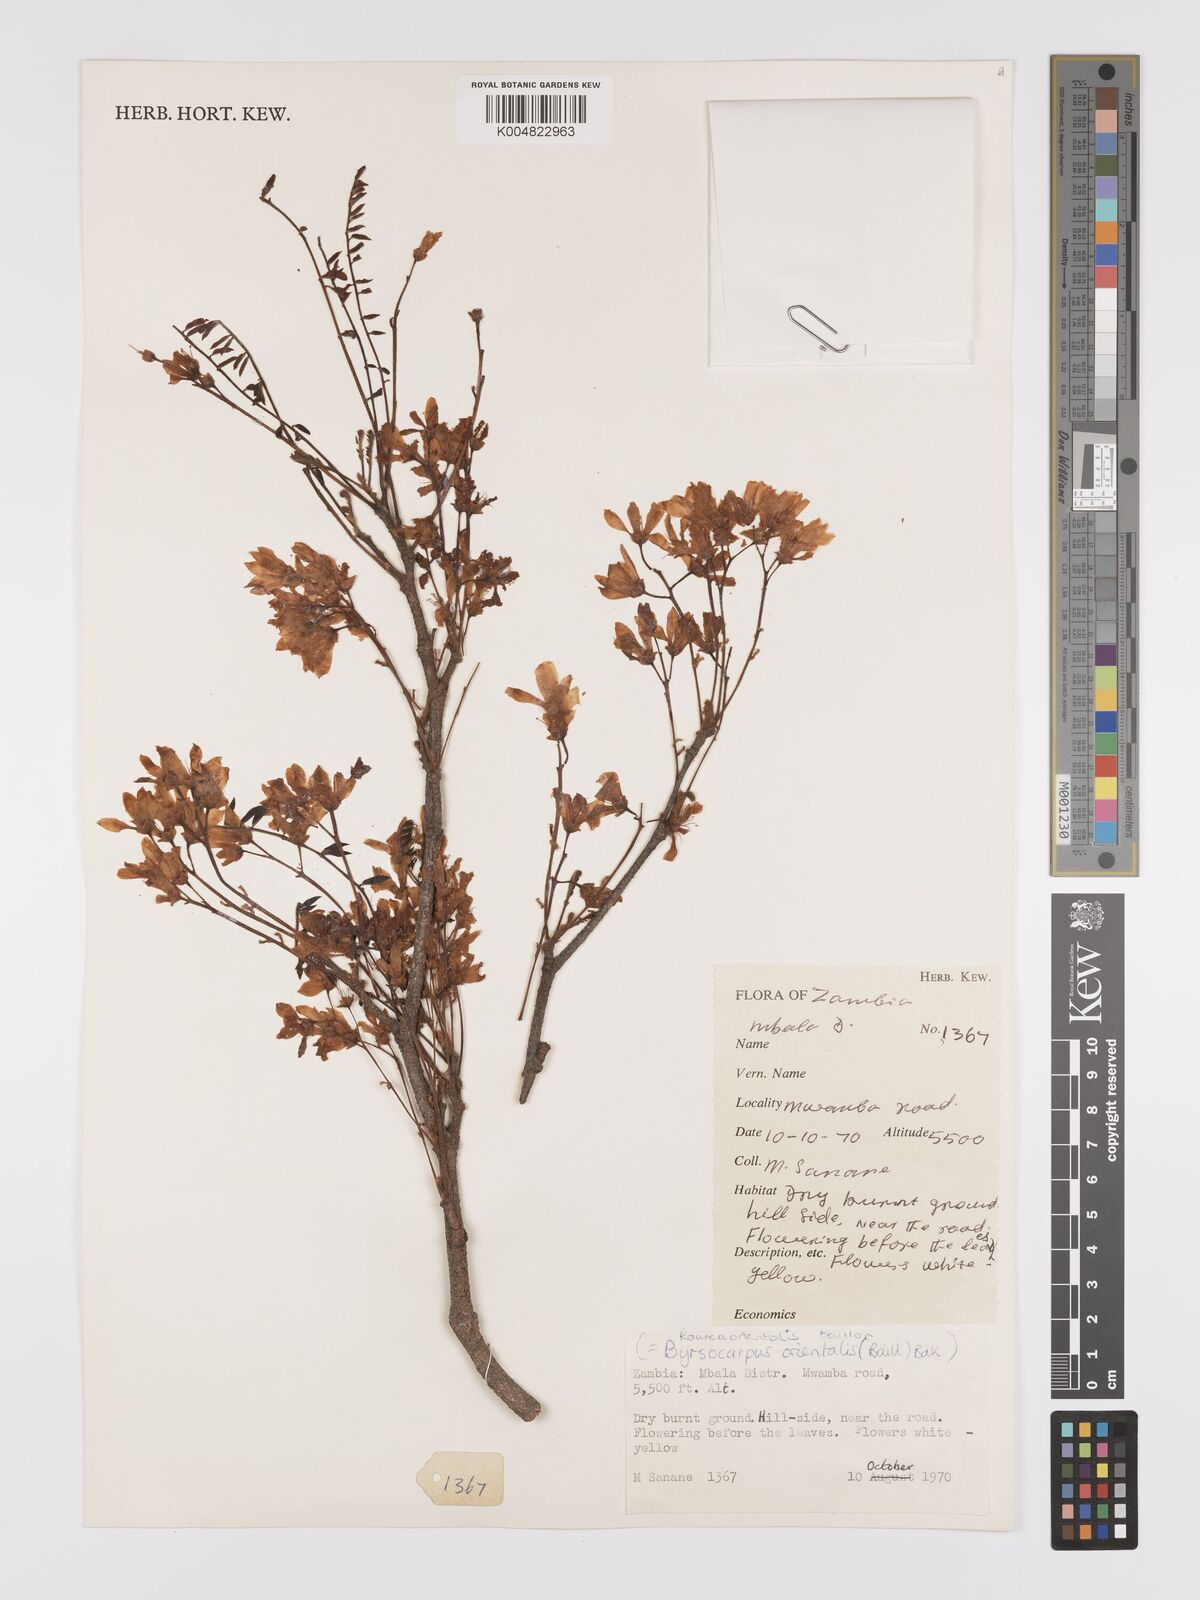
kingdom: Plantae
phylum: Tracheophyta
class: Magnoliopsida
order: Oxalidales
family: Connaraceae
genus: Rourea
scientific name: Rourea orientalis
